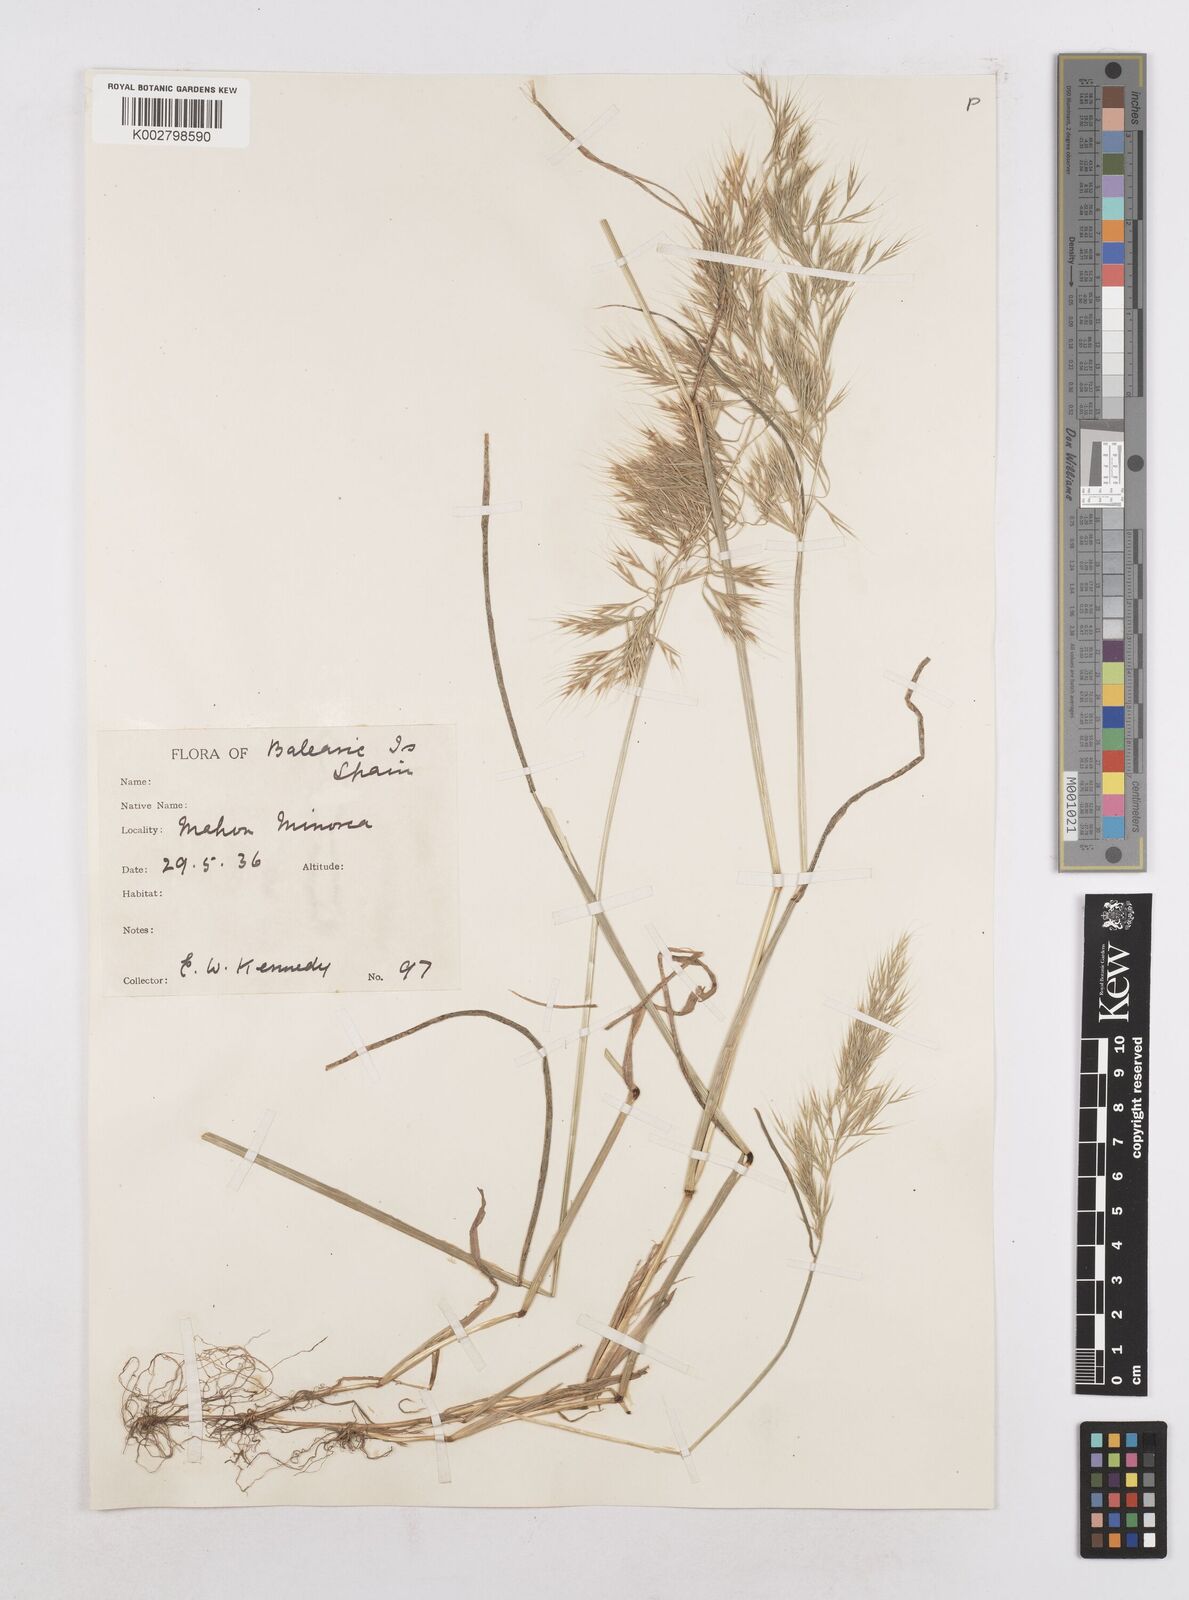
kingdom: Plantae
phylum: Tracheophyta
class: Liliopsida
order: Poales
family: Poaceae
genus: Festuca
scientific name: Festuca geniculata
